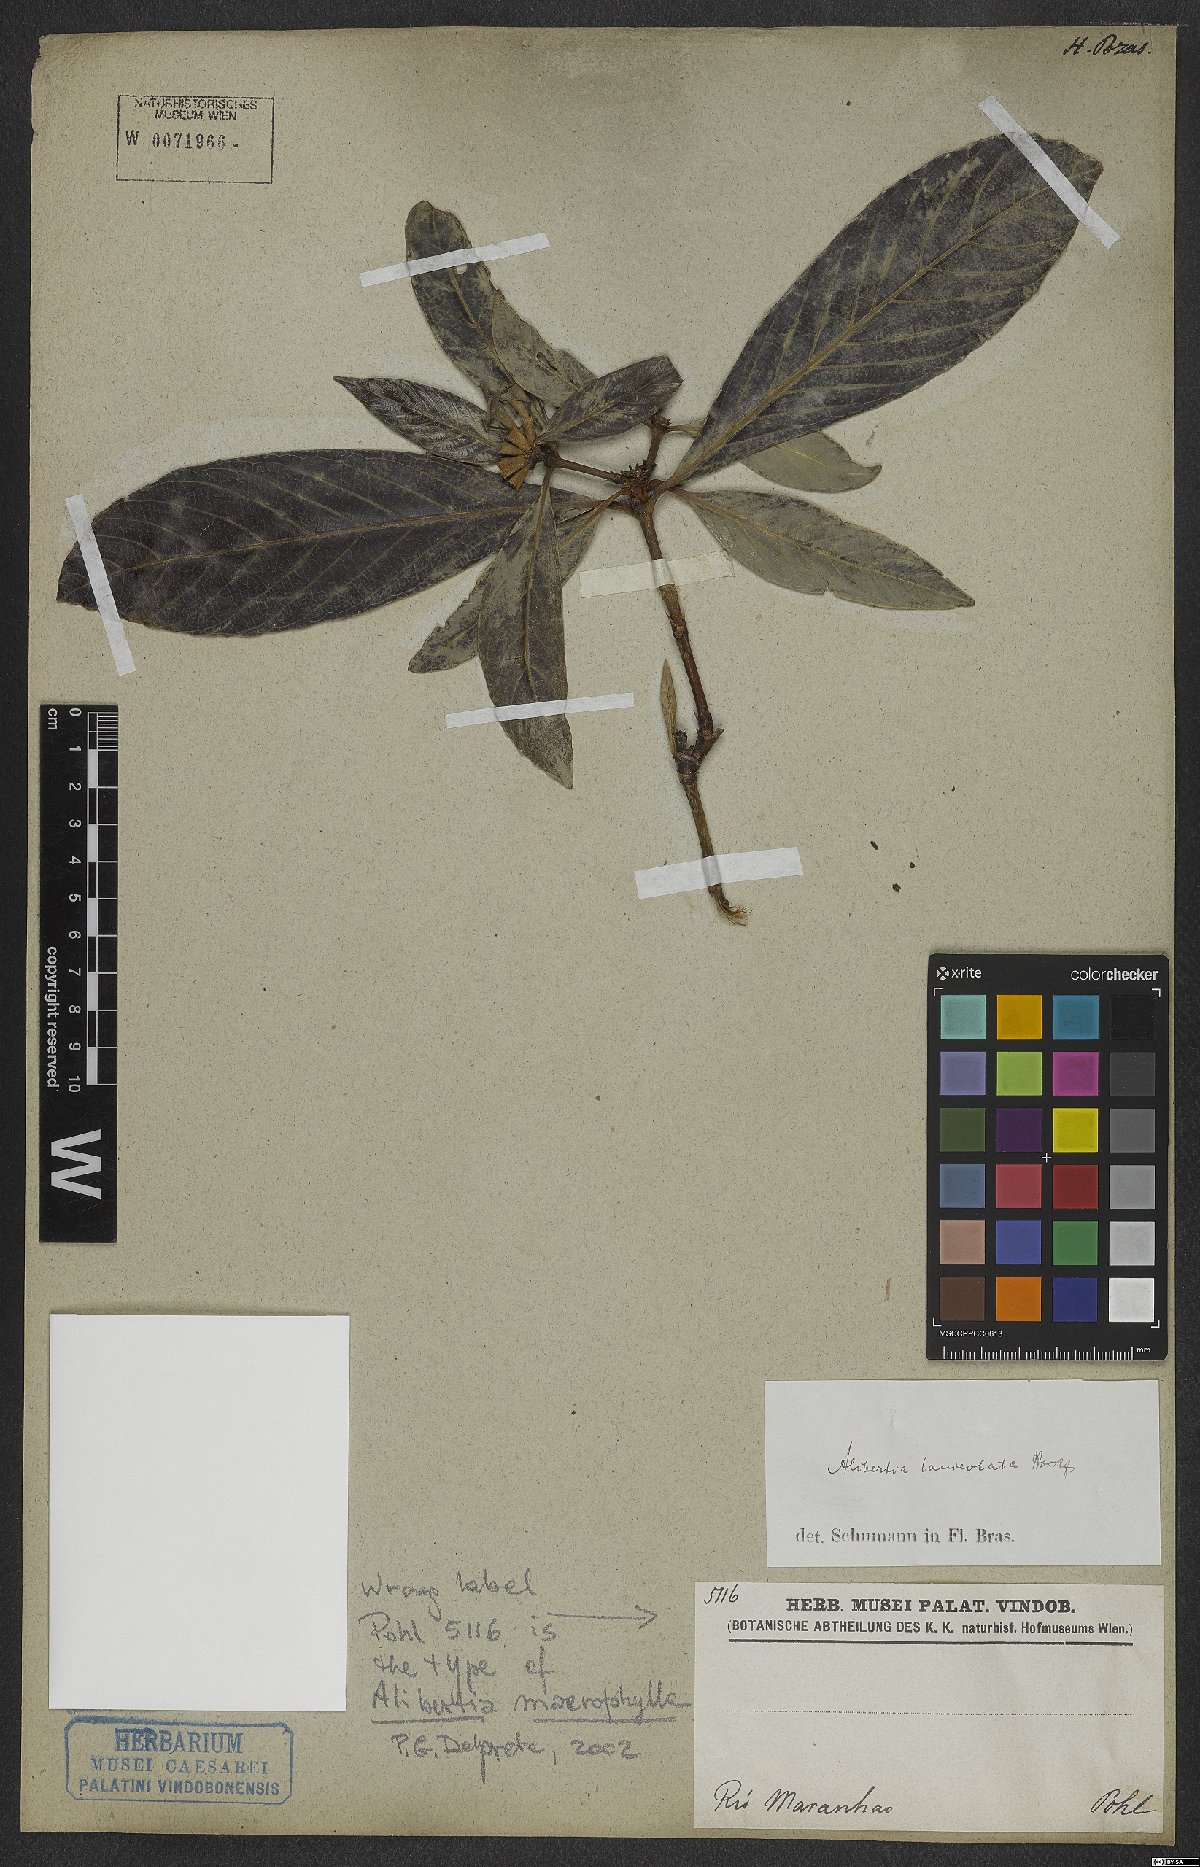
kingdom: Plantae
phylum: Tracheophyta
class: Magnoliopsida
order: Gentianales
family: Rubiaceae
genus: Alibertia
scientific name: Alibertia
